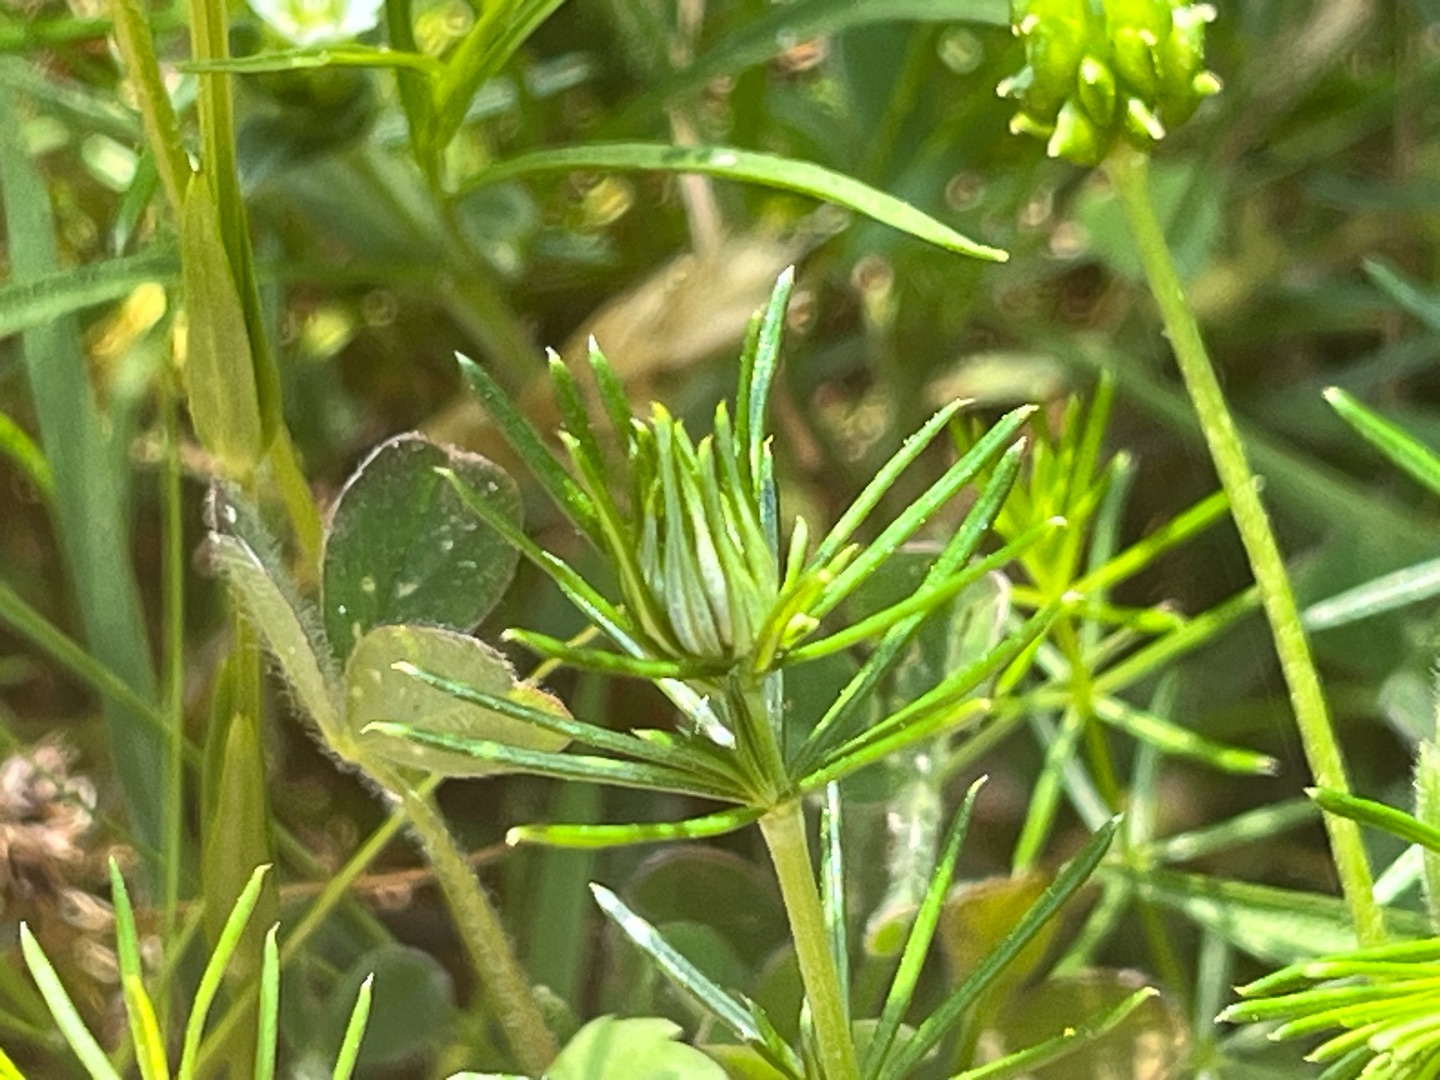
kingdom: Animalia
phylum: Arthropoda
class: Insecta
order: Diptera
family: Cecidomyiidae
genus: Contarinia
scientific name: Contarinia vera
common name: Snurretopgalmyg
